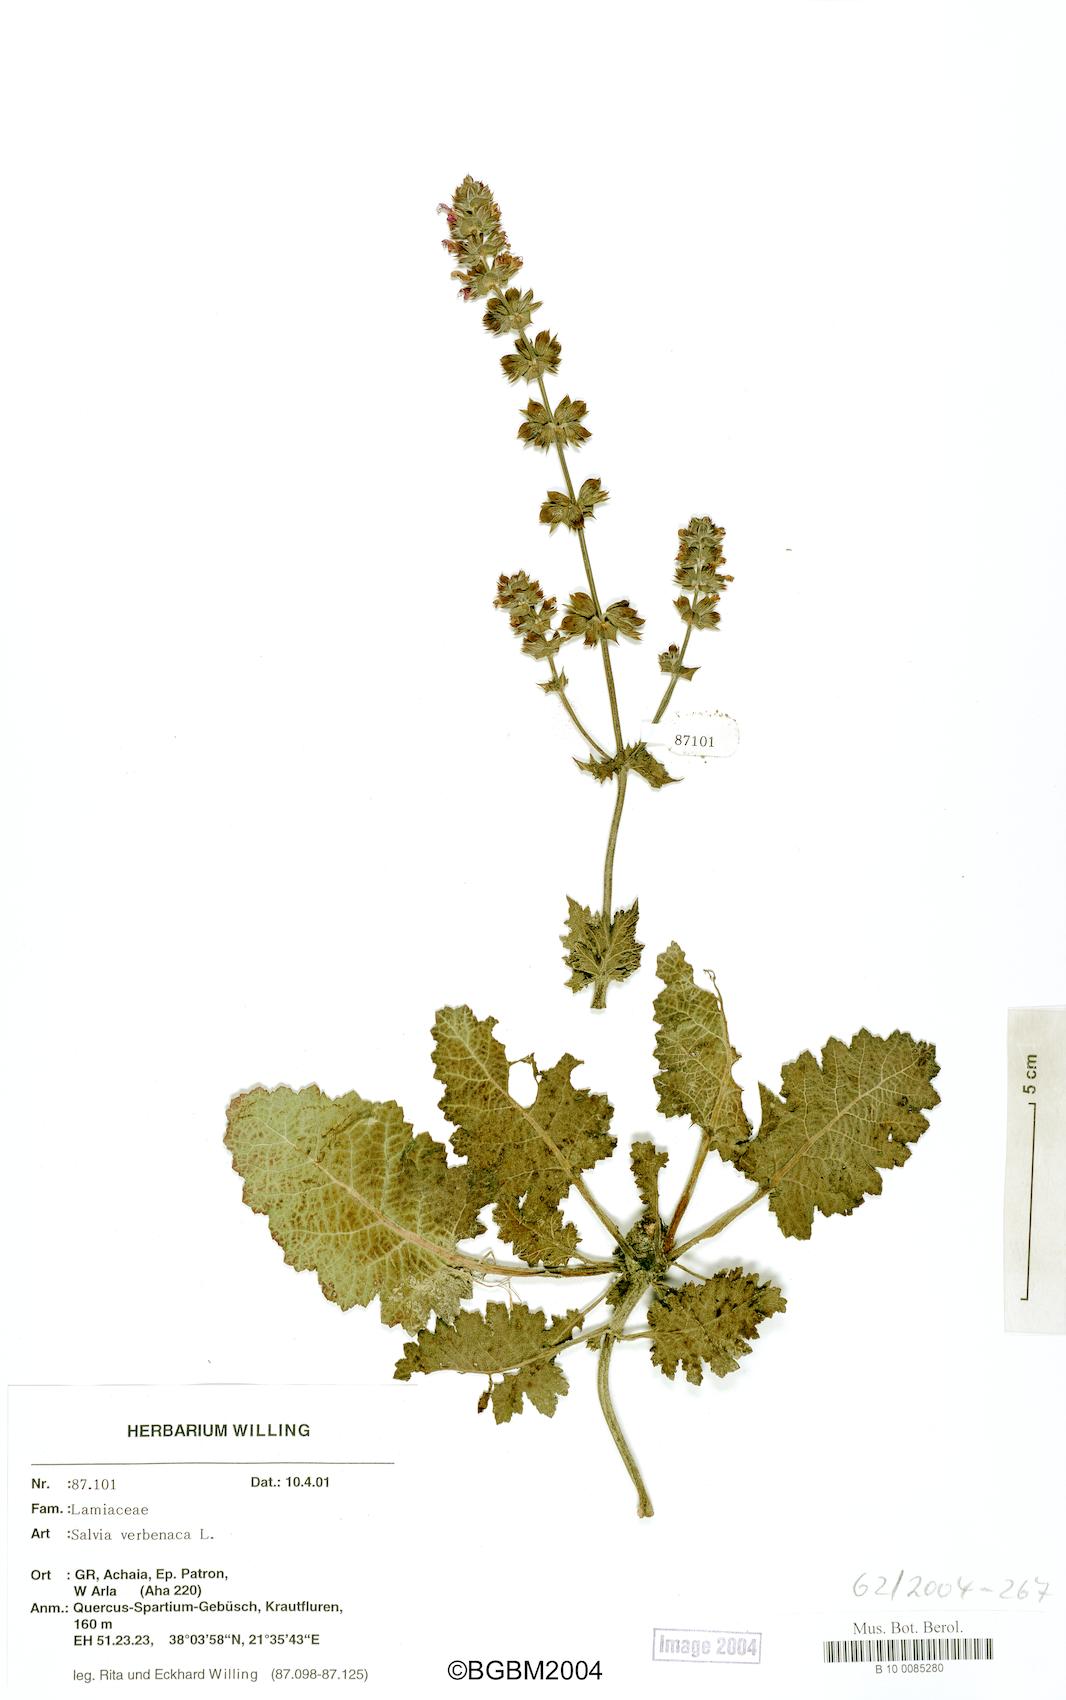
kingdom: Plantae
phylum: Tracheophyta
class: Magnoliopsida
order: Lamiales
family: Lamiaceae
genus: Salvia
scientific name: Salvia verbenaca
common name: Wild clary
